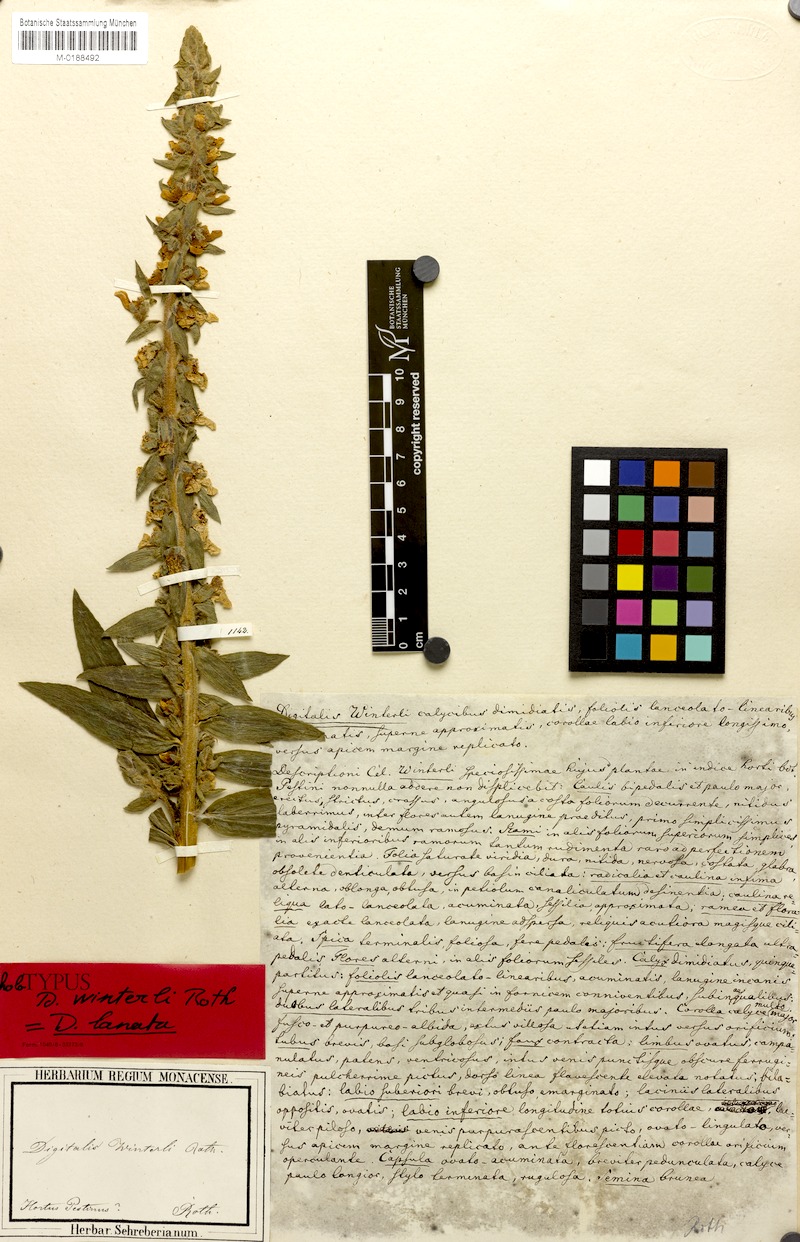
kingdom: Plantae
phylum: Tracheophyta
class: Magnoliopsida
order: Lamiales
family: Plantaginaceae
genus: Digitalis
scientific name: Digitalis lanata
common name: Grecian foxglove
